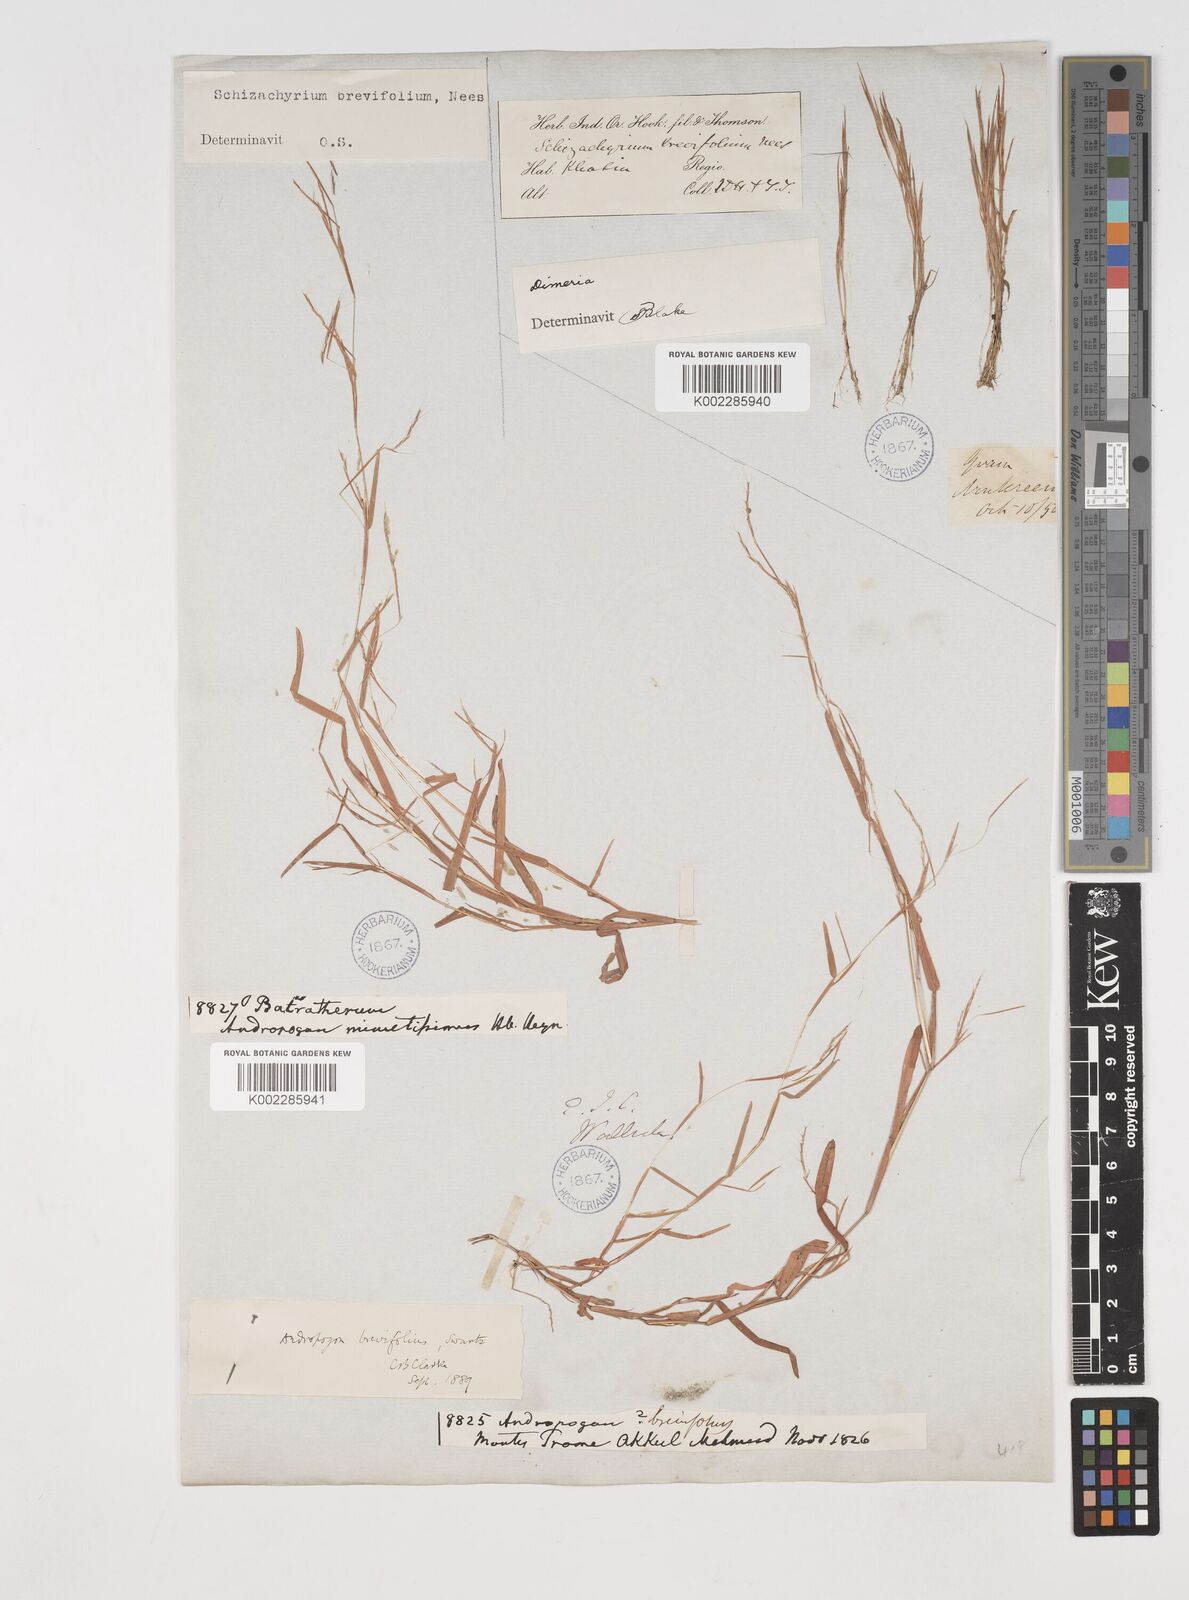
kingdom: Plantae
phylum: Tracheophyta
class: Liliopsida
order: Poales
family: Poaceae
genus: Schizachyrium
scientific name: Schizachyrium brevifolium
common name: Serillo dulce
